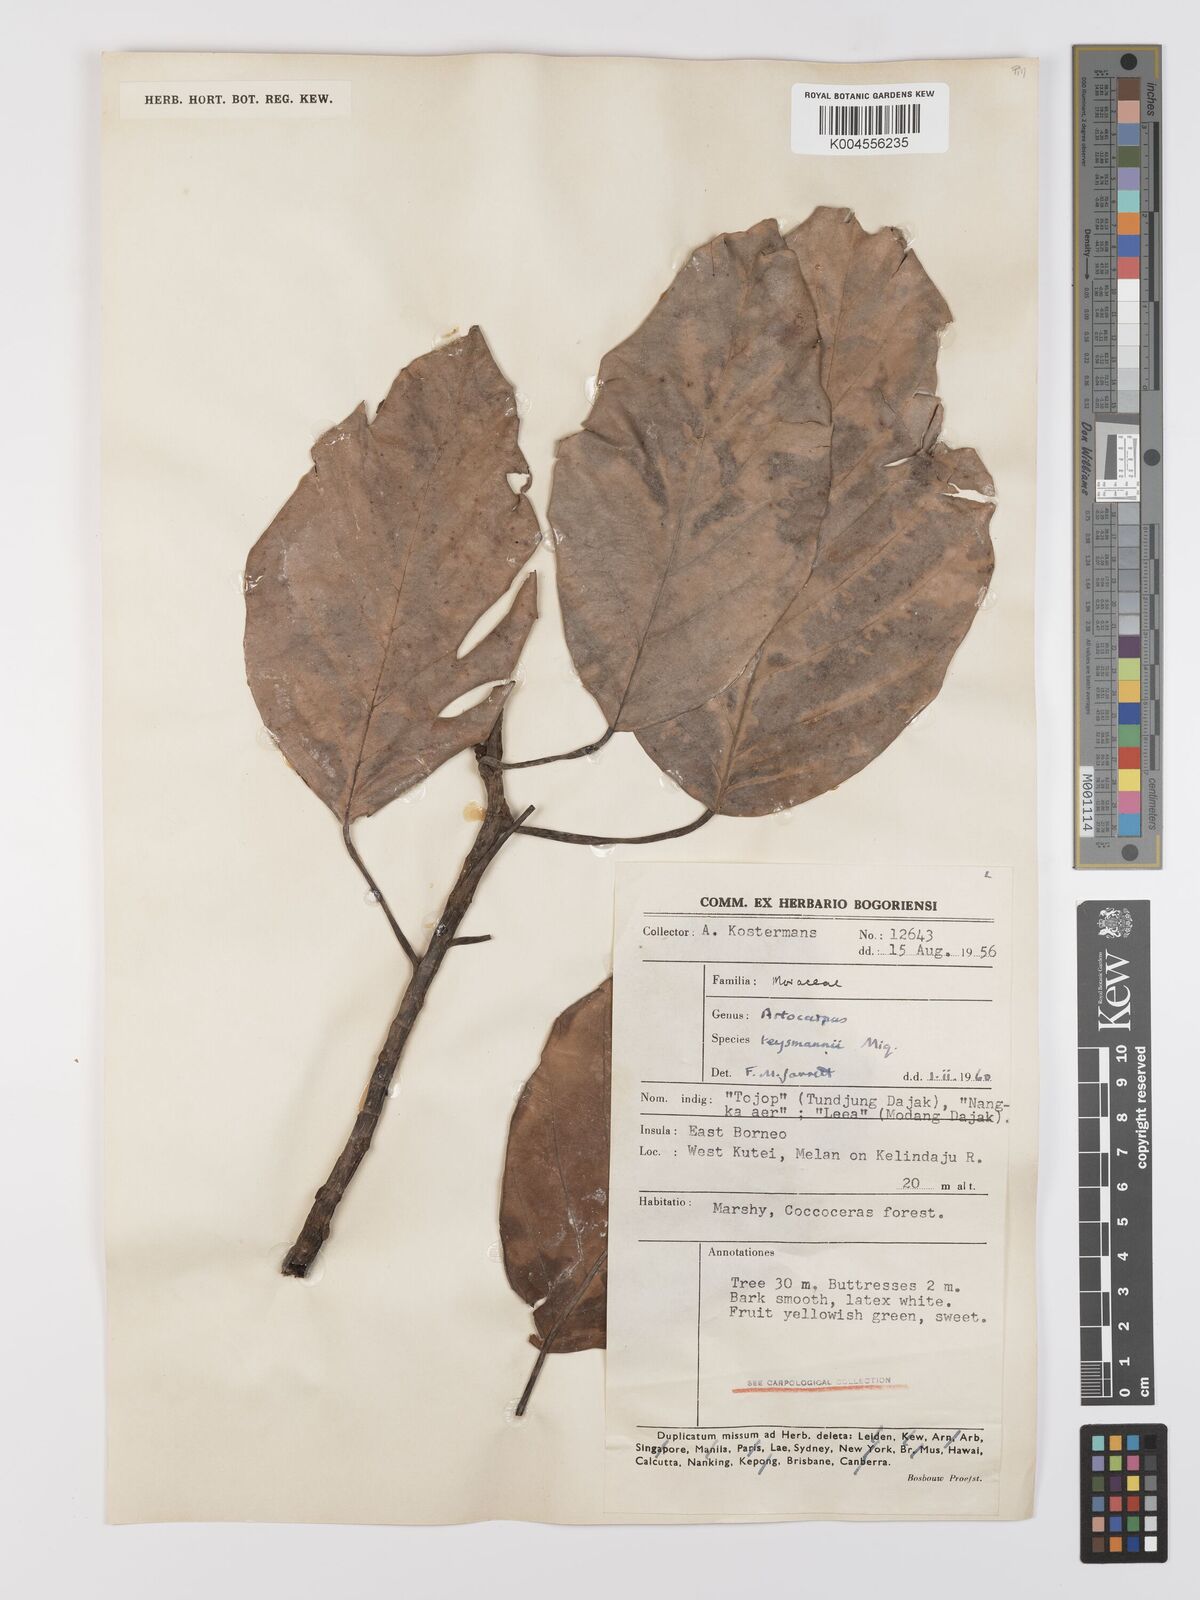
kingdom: Plantae
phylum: Tracheophyta
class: Magnoliopsida
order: Rosales
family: Moraceae
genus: Artocarpus
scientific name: Artocarpus teysmannii
